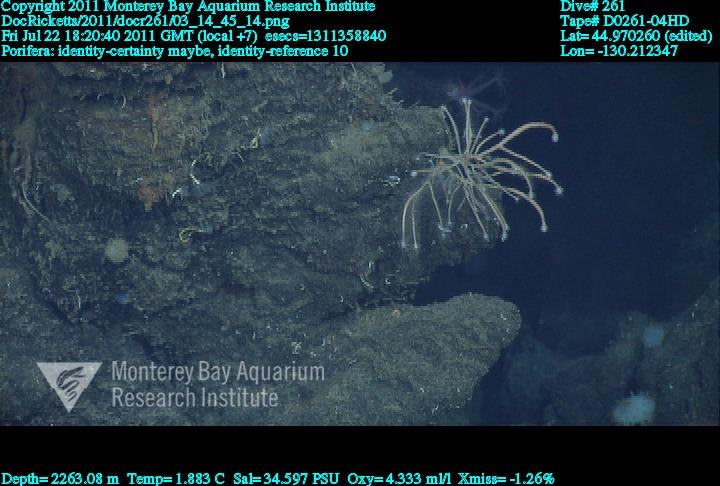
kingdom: Animalia
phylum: Porifera
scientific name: Porifera
